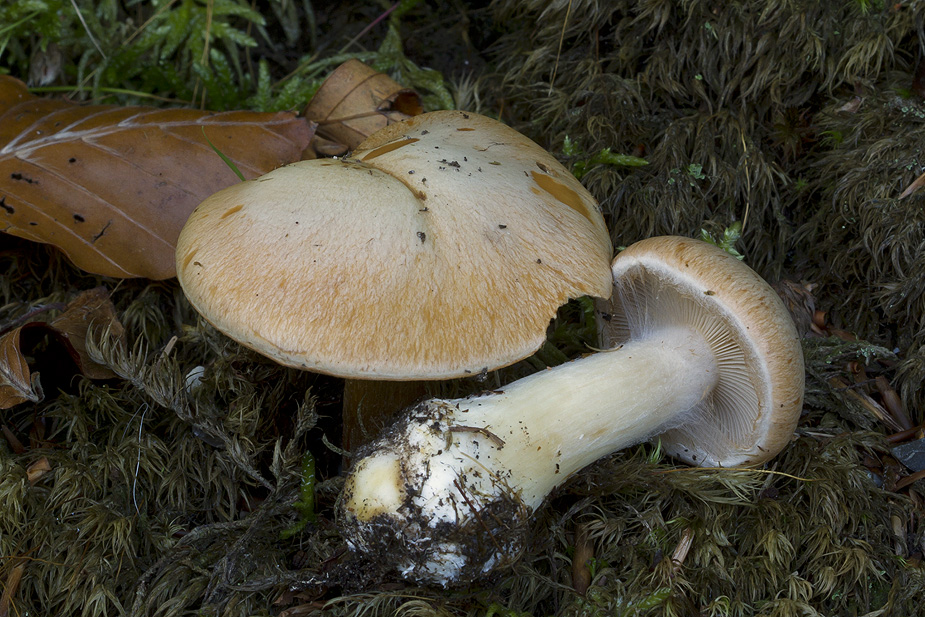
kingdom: Fungi
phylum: Basidiomycota
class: Agaricomycetes
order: Agaricales
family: Cortinariaceae
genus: Thaxterogaster
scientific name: Thaxterogaster talus
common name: knogle-slørhat
